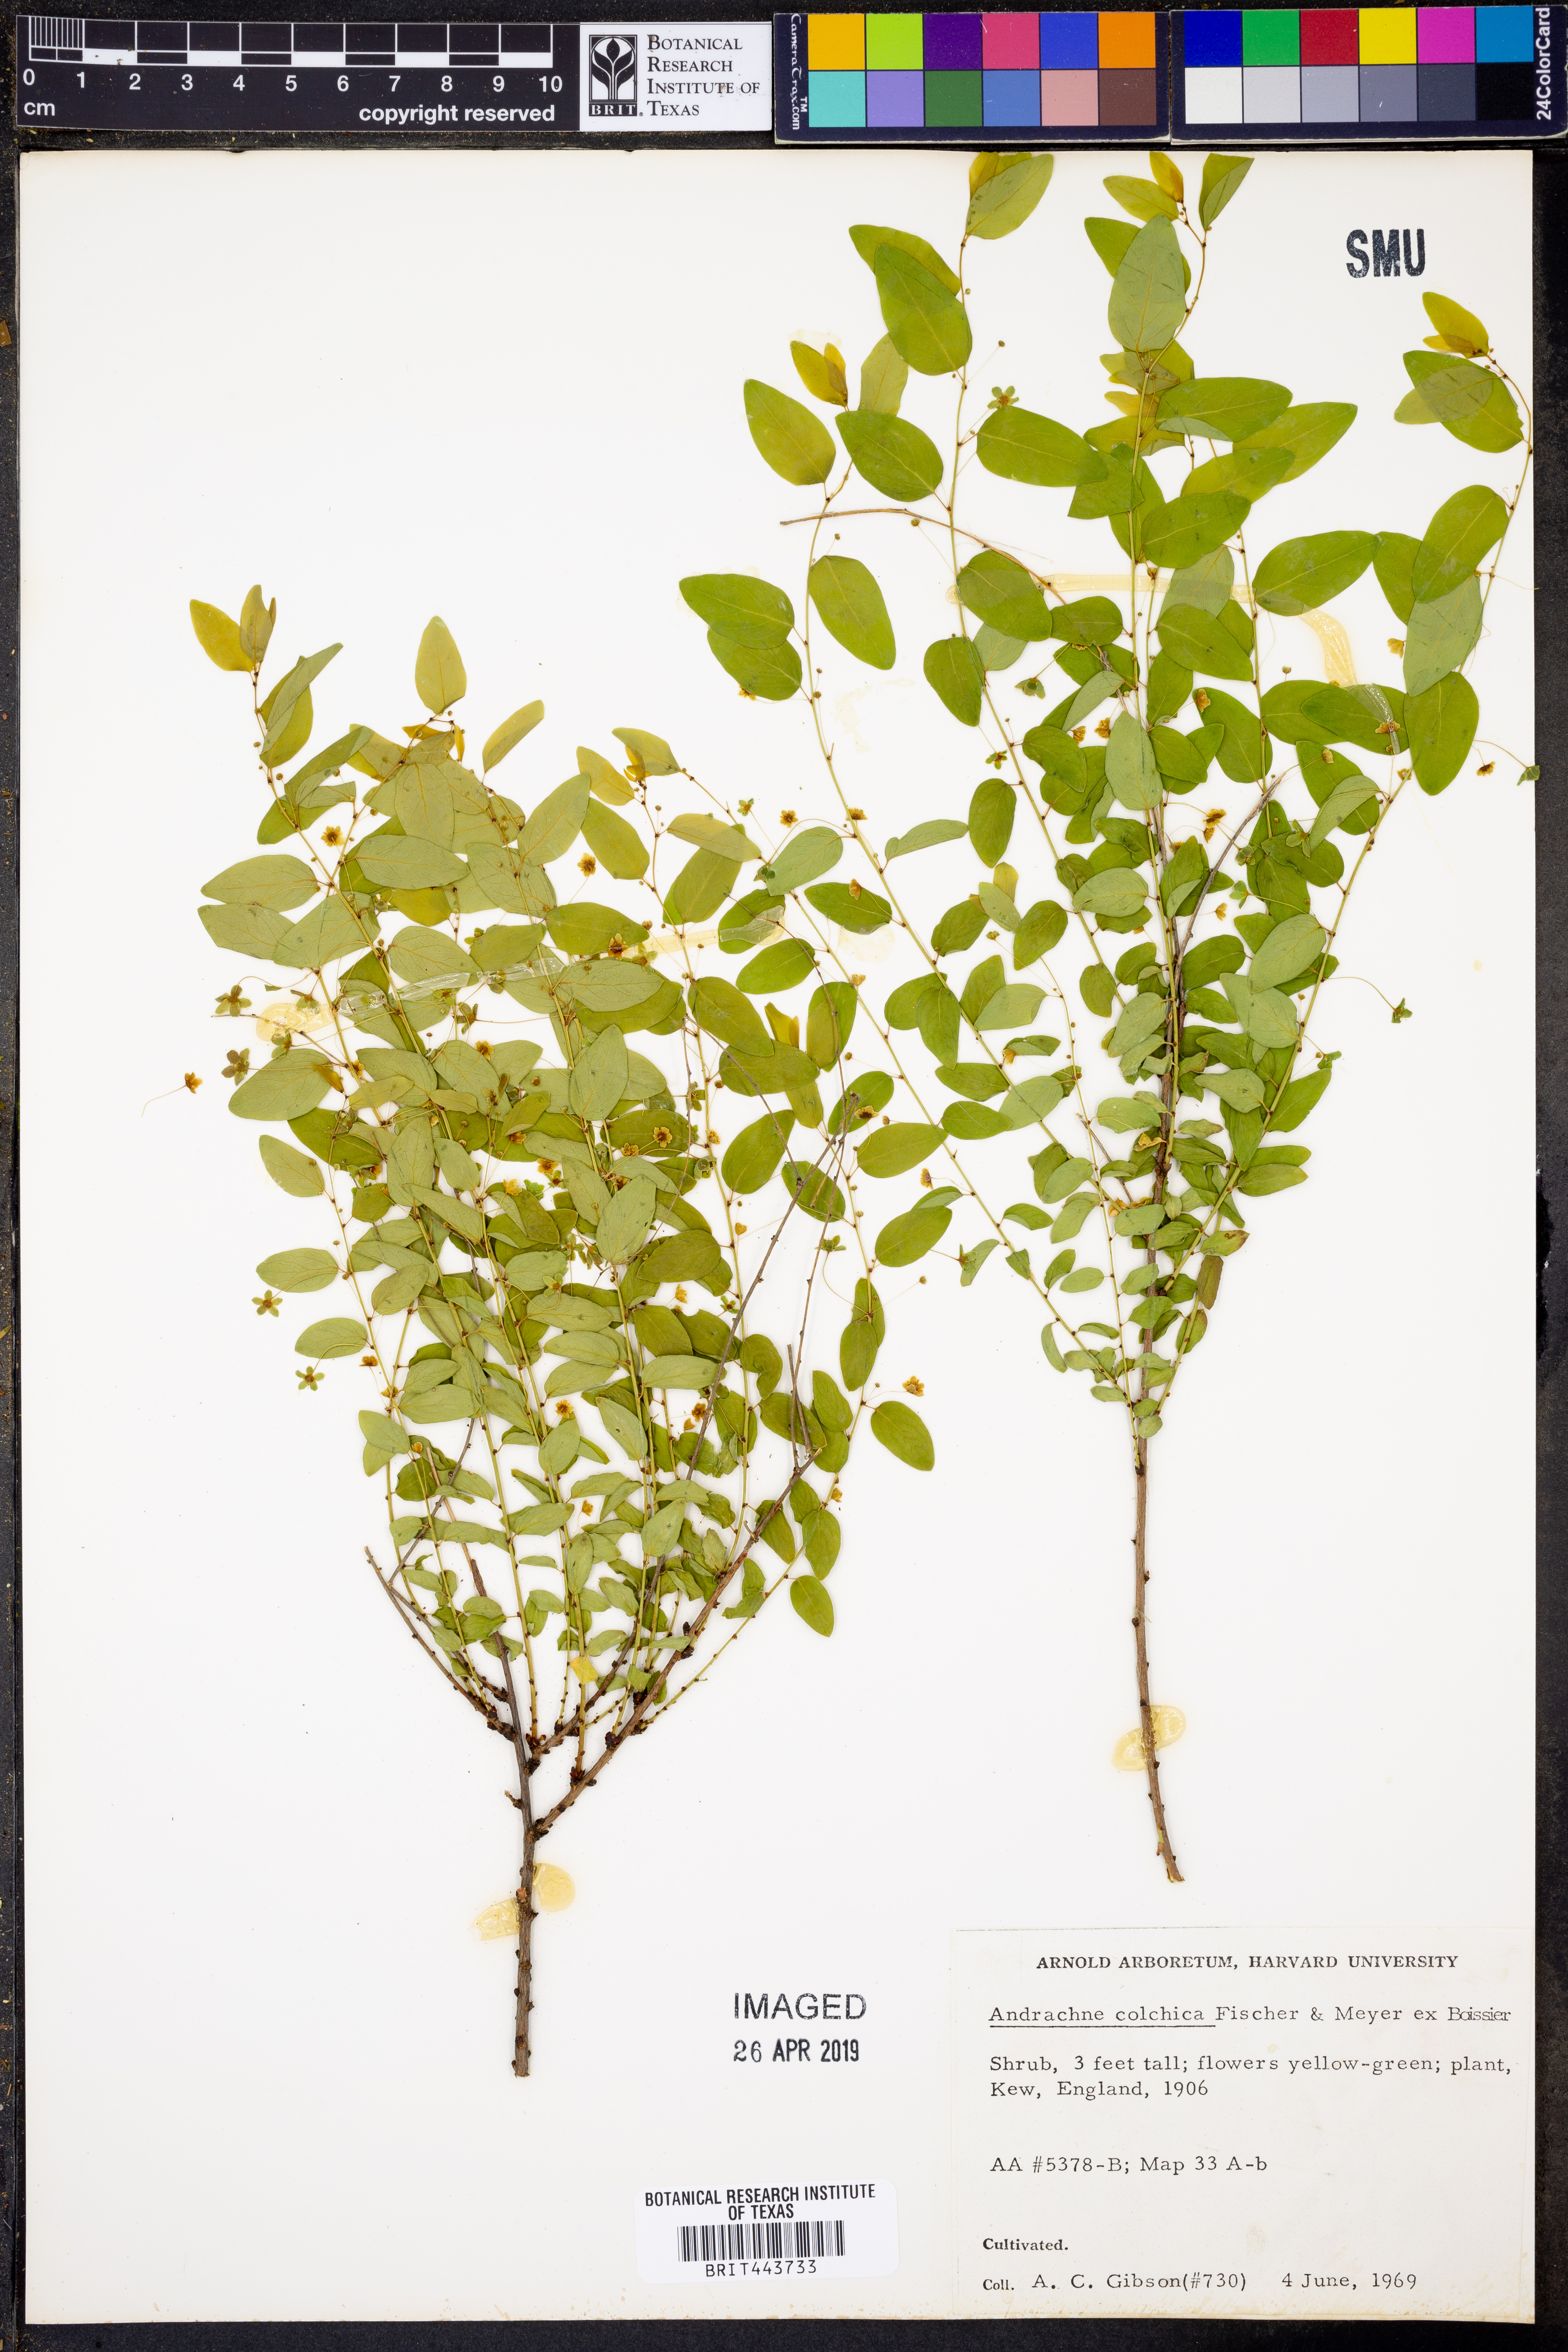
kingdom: Plantae
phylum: Tracheophyta
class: Magnoliopsida
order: Malpighiales
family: Phyllanthaceae
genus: Leptopus
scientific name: Leptopus chinensis
